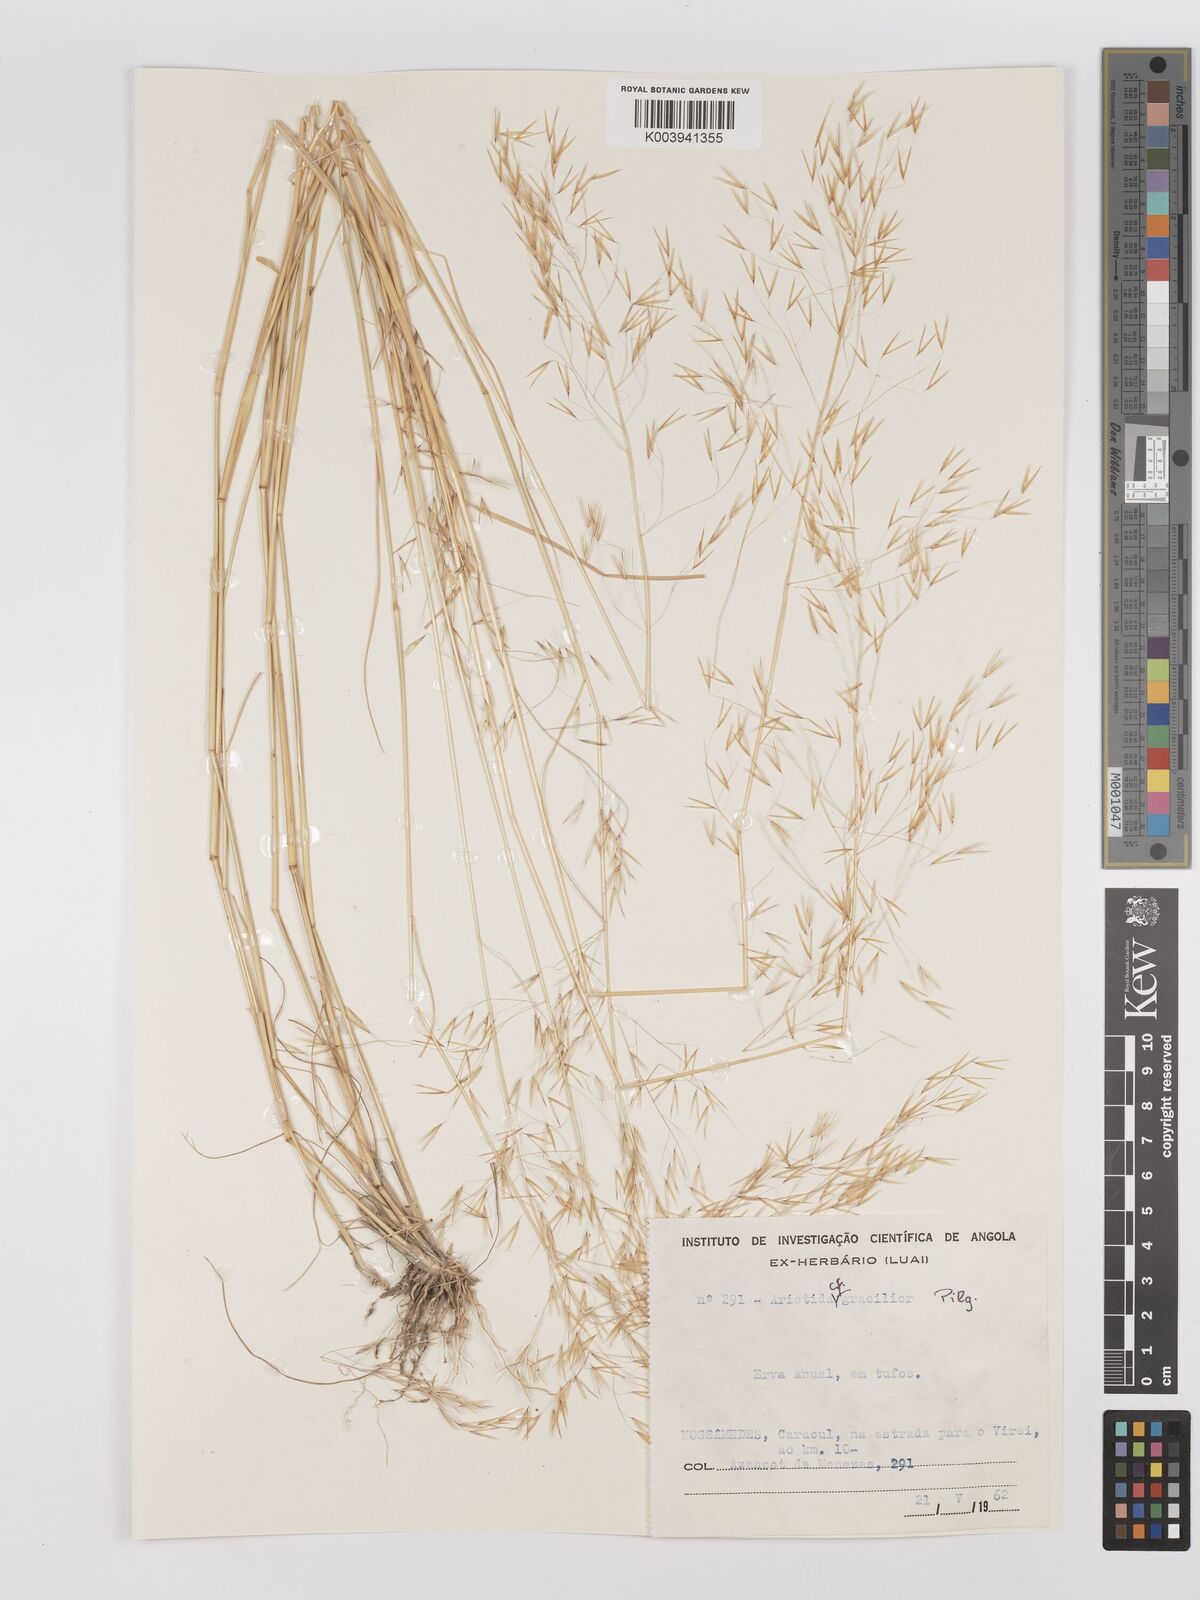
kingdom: Plantae
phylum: Tracheophyta
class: Liliopsida
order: Poales
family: Poaceae
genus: Stipagrostis
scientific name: Stipagrostis hirtigluma
